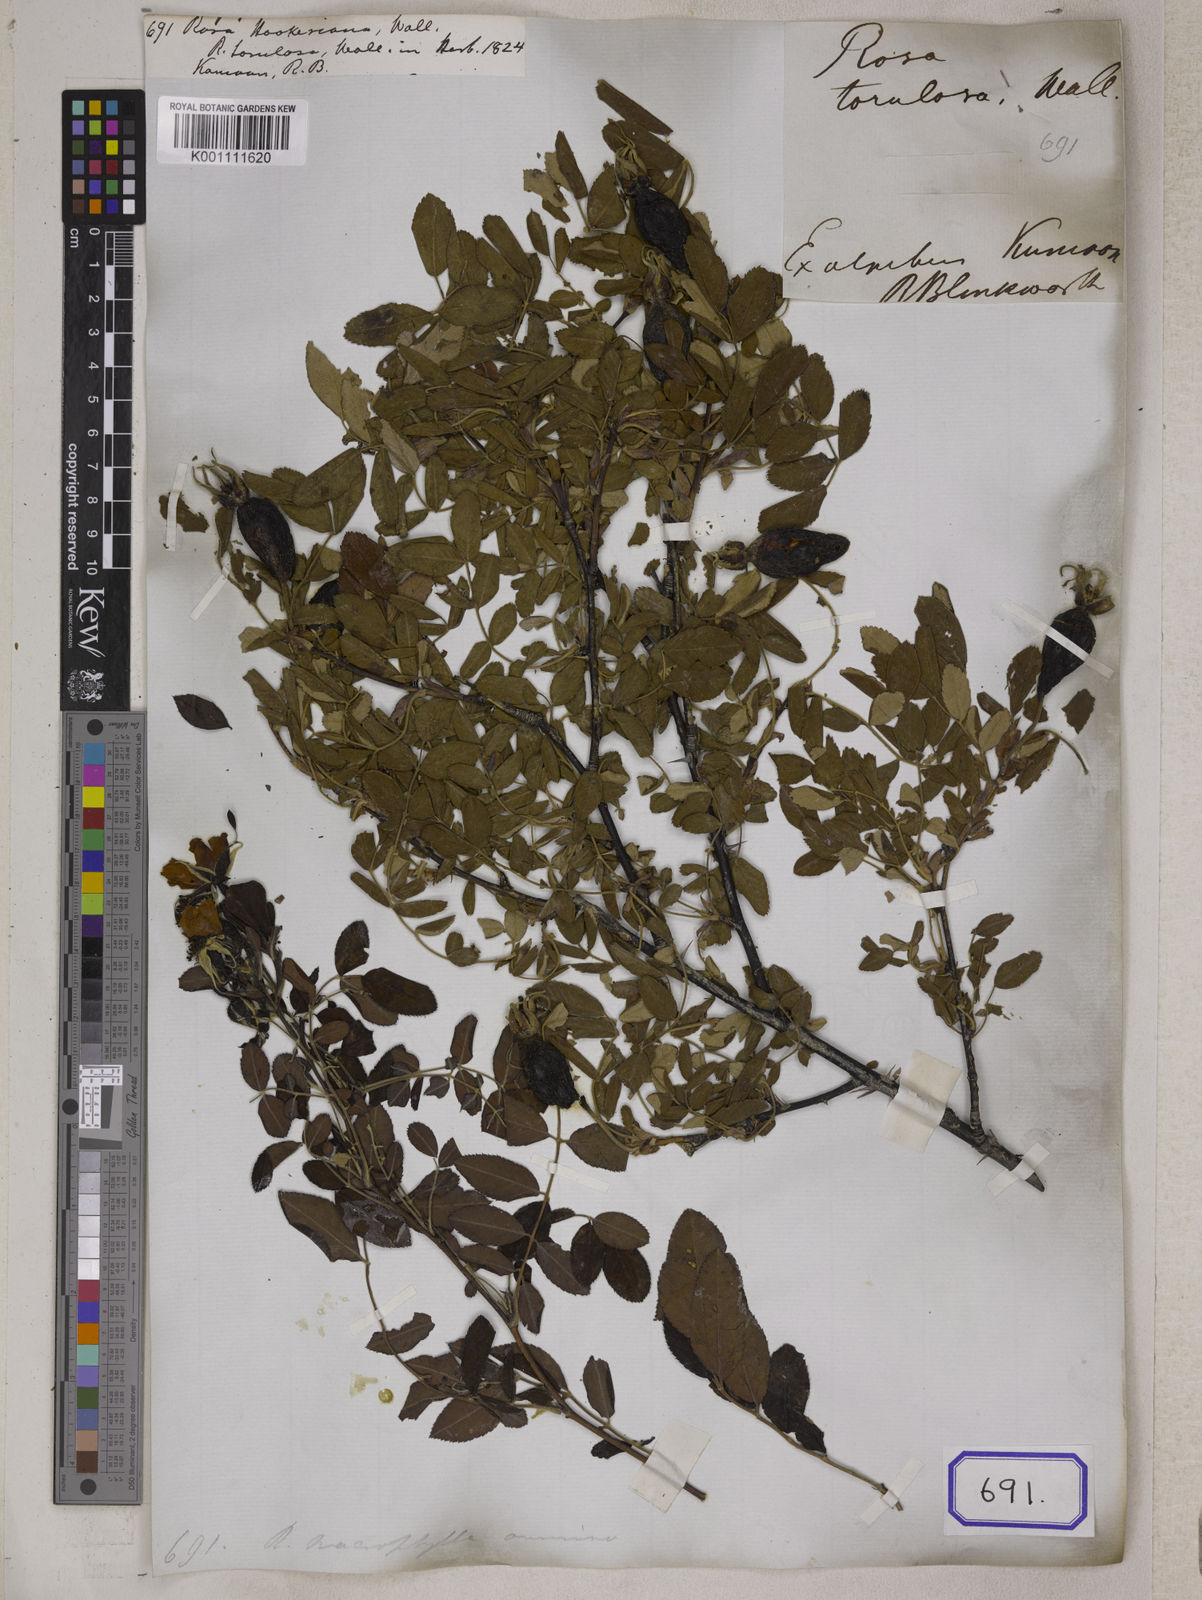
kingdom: Plantae
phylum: Tracheophyta
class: Magnoliopsida
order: Rosales
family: Rosaceae
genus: Rosa
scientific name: Rosa macrophylla
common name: Big-hip rose
